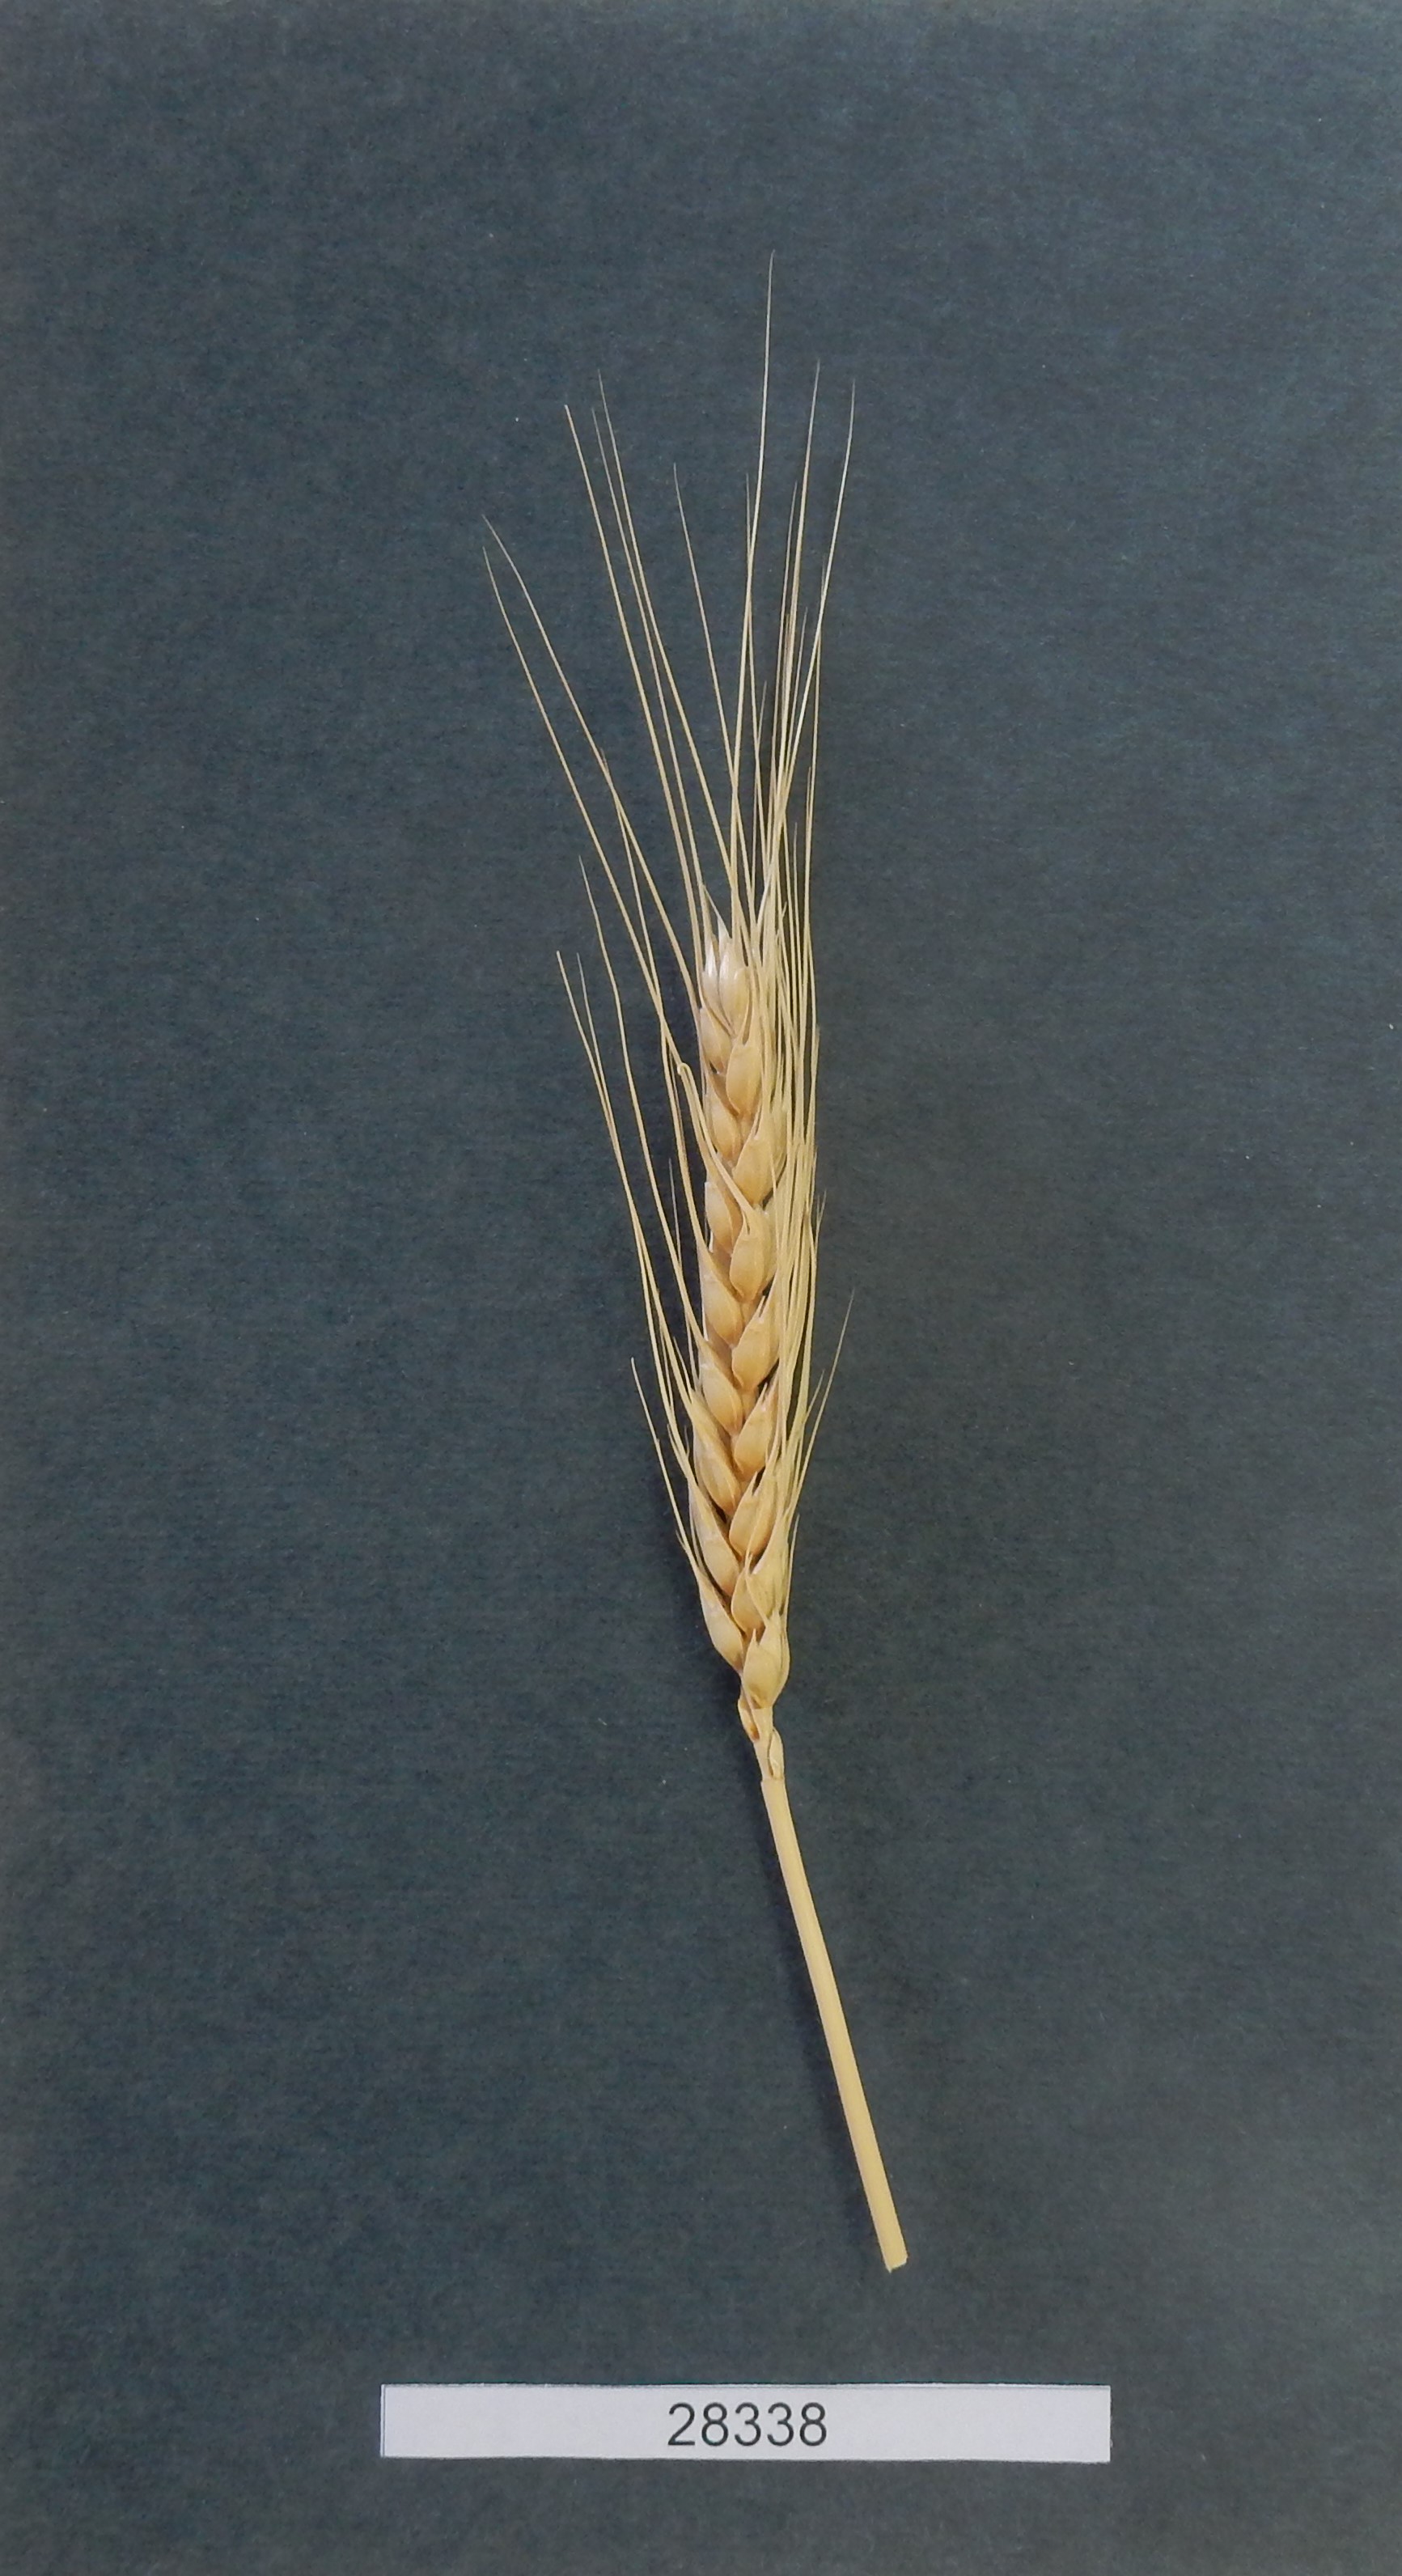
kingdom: Plantae
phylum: Tracheophyta
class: Liliopsida
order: Poales
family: Poaceae
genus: Triticum
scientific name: Triticum aestivum
